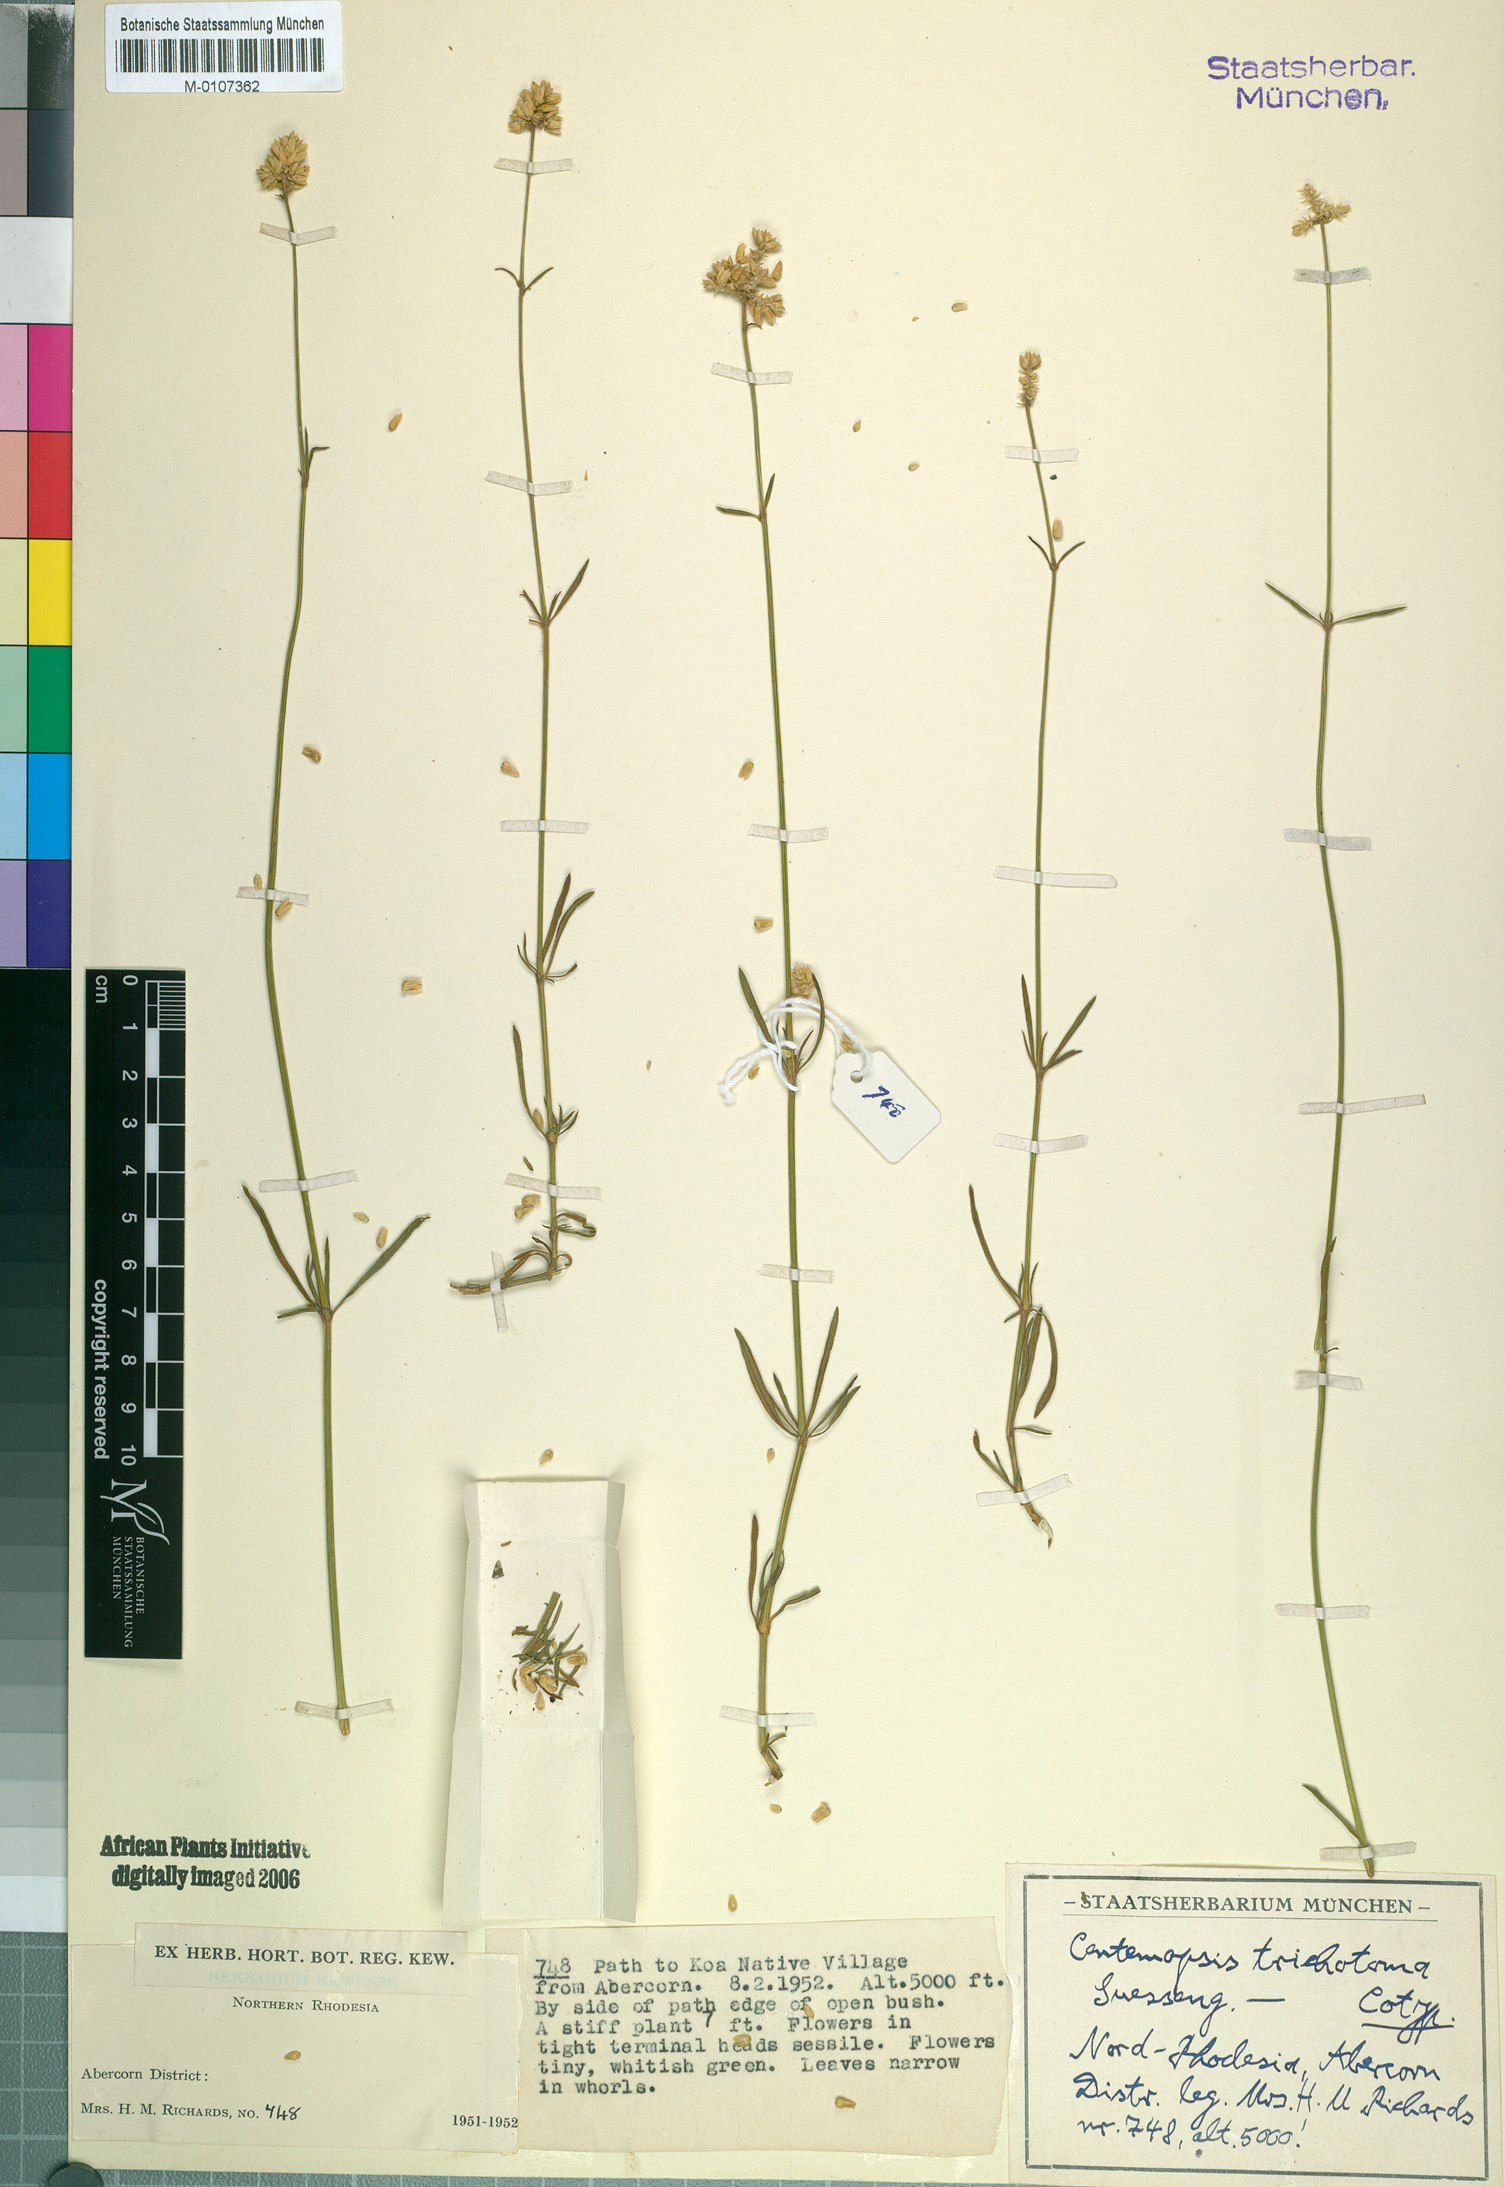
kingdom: Plantae
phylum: Tracheophyta
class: Magnoliopsida
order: Caryophyllales
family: Amaranthaceae
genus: Centemopsis
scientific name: Centemopsis fastigiata
